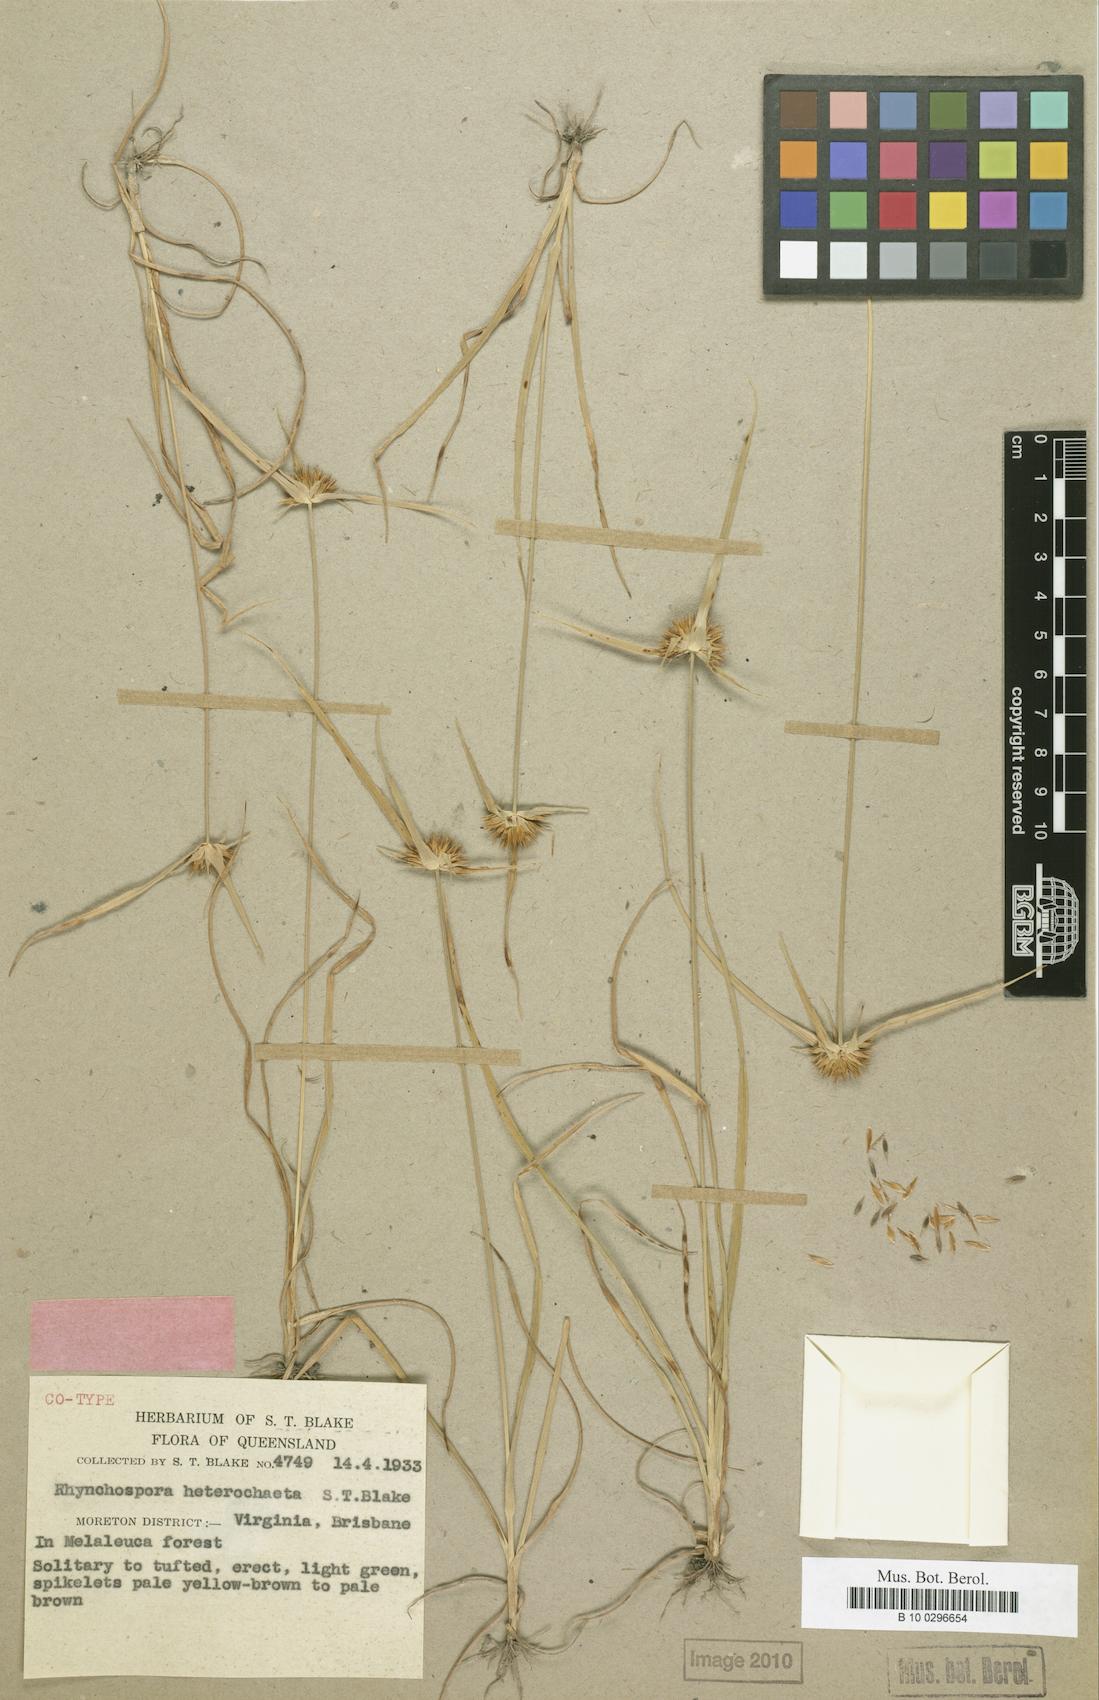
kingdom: Plantae
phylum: Tracheophyta
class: Liliopsida
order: Poales
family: Cyperaceae
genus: Rhynchospora
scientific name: Rhynchospora heterochaeta
